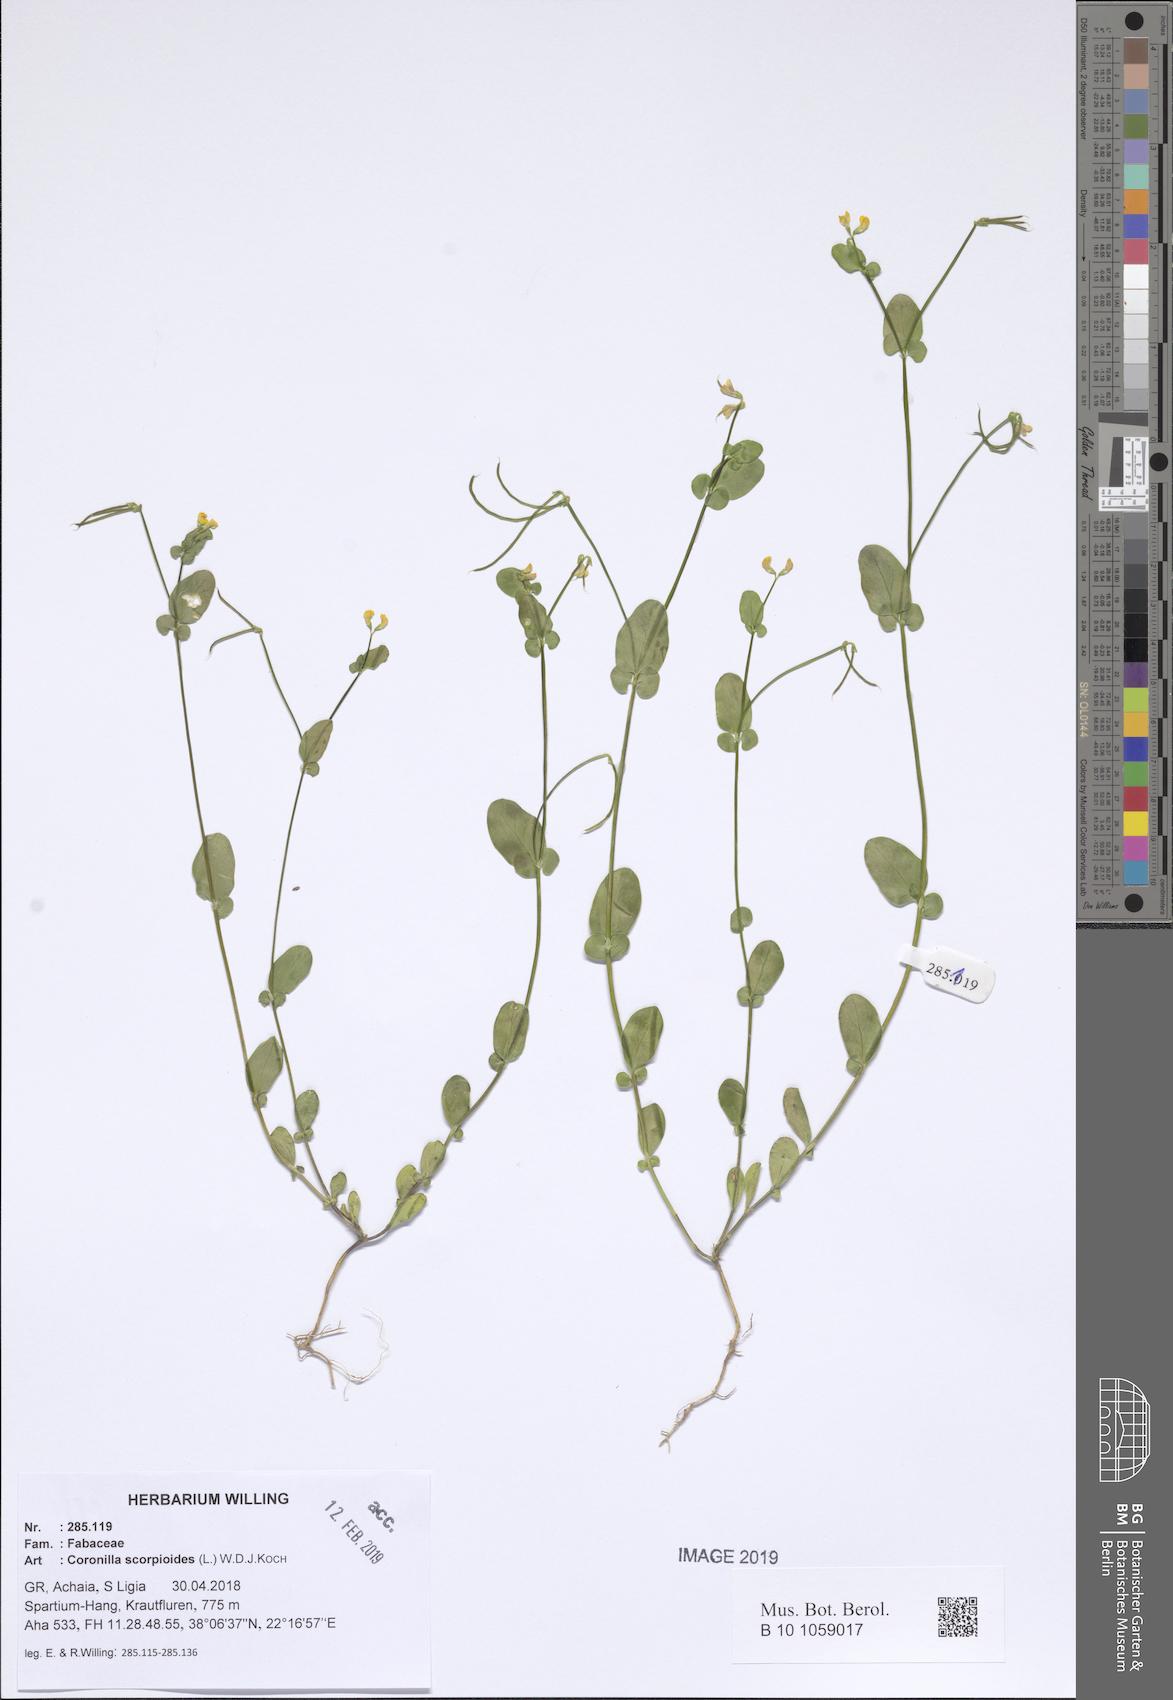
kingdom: Plantae
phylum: Tracheophyta
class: Magnoliopsida
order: Fabales
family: Fabaceae
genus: Coronilla
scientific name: Coronilla scorpioides
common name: Annual scorpion-vetch
